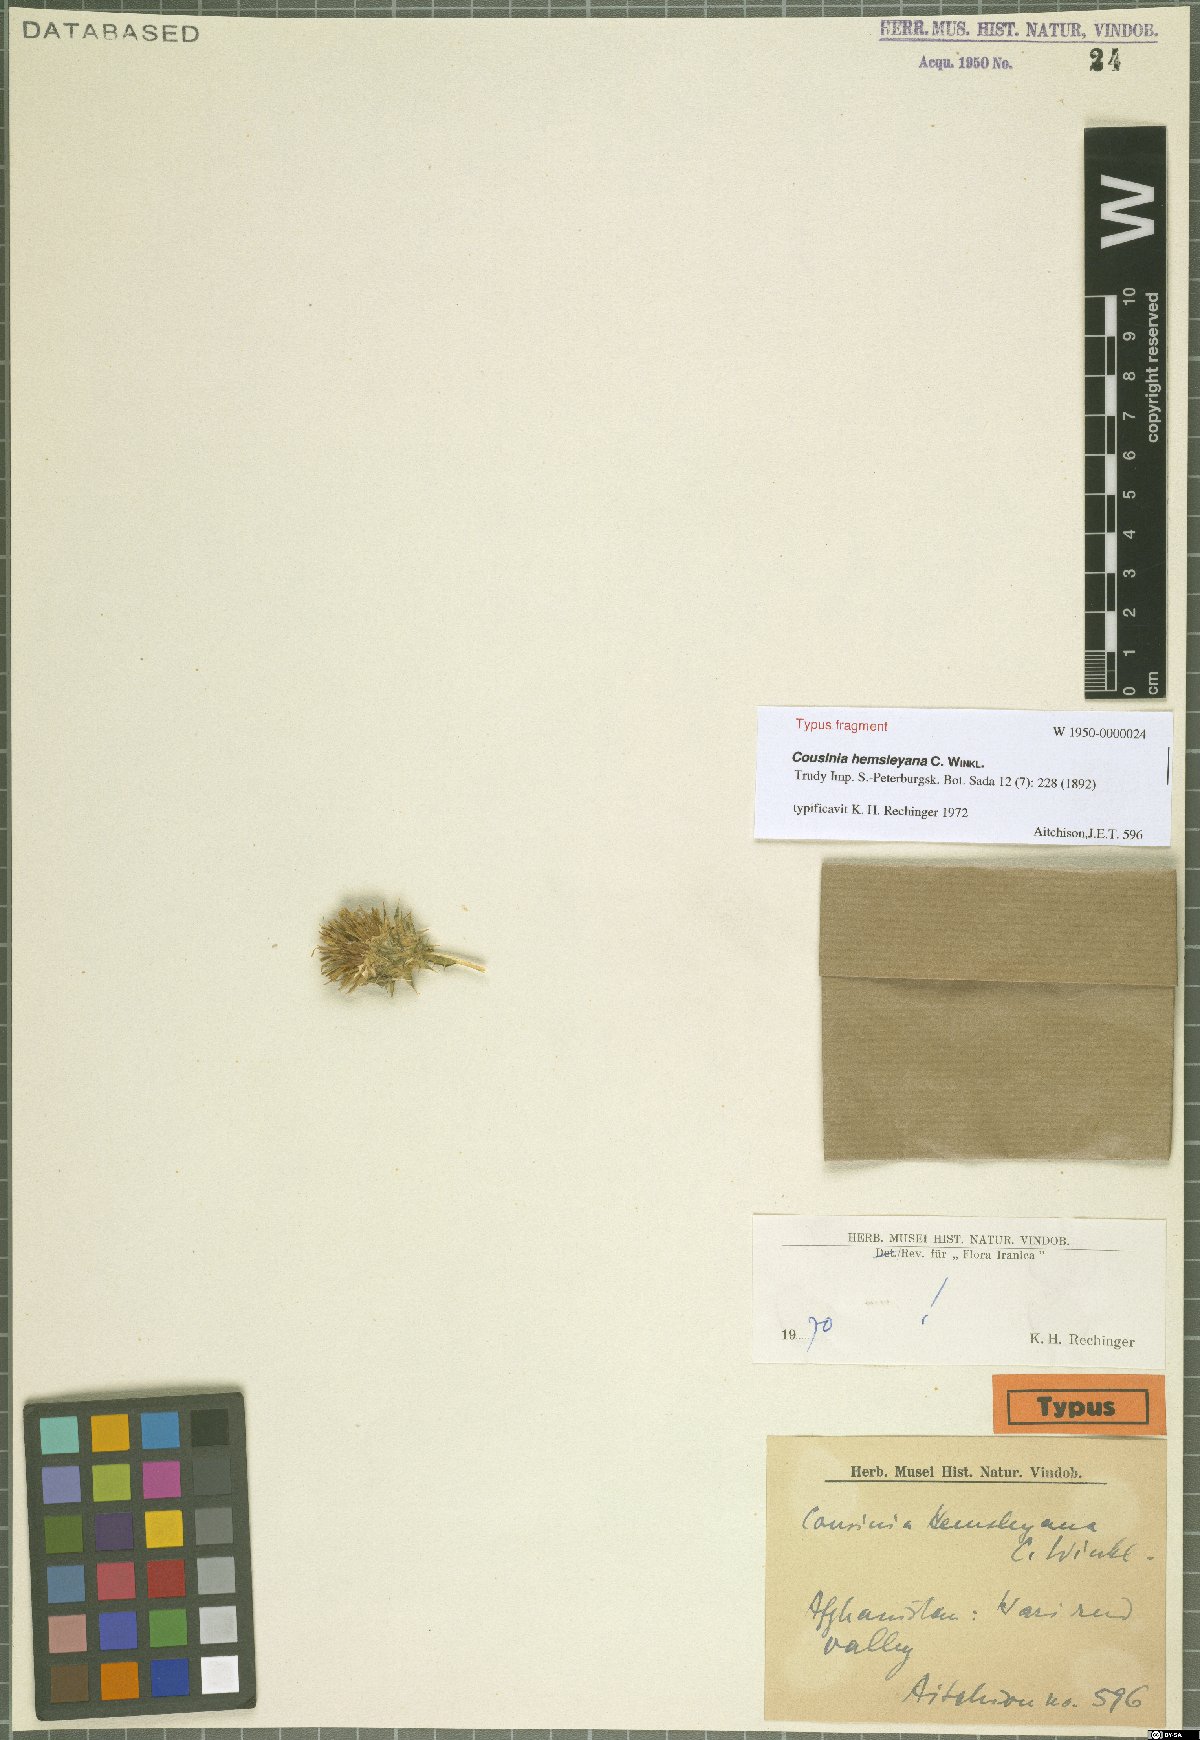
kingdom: Plantae
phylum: Tracheophyta
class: Magnoliopsida
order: Asterales
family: Asteraceae
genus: Cousinia
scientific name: Cousinia hemsleyana
